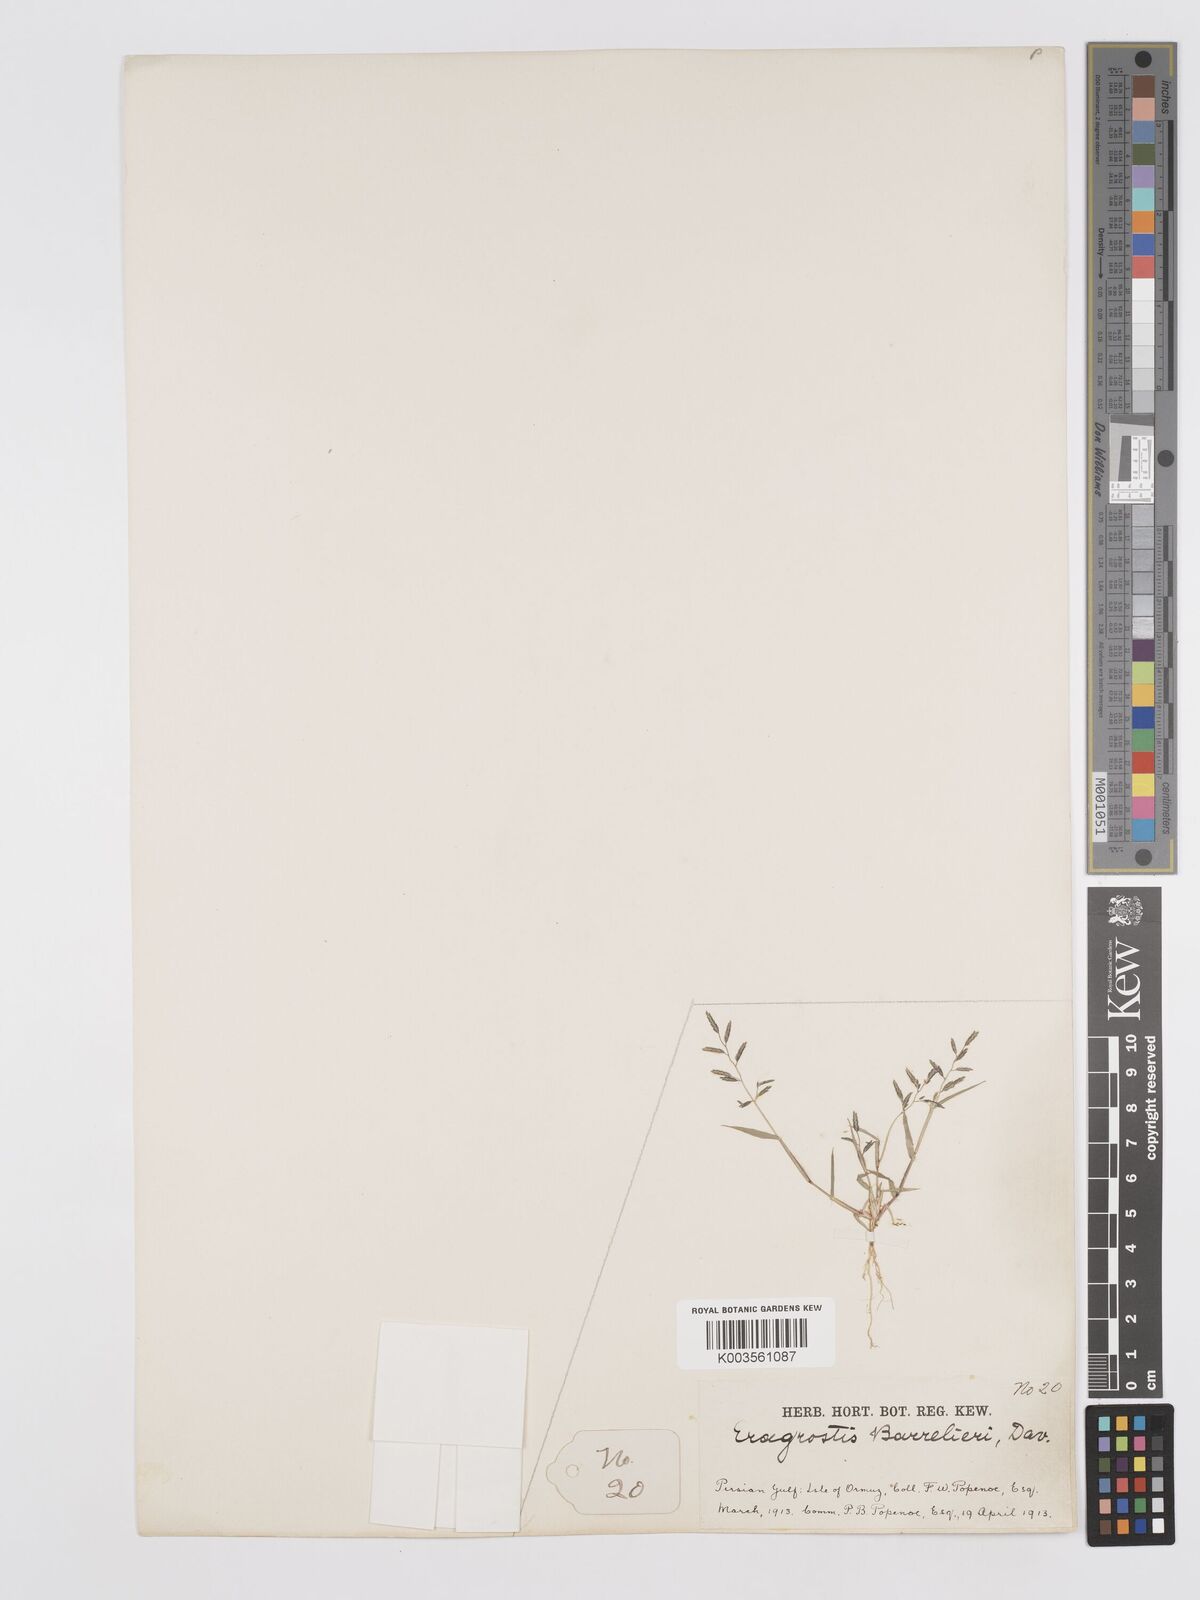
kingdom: Plantae
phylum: Tracheophyta
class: Liliopsida
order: Poales
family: Poaceae
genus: Eragrostis
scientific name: Eragrostis barrelieri
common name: Mediterranean lovegrass
